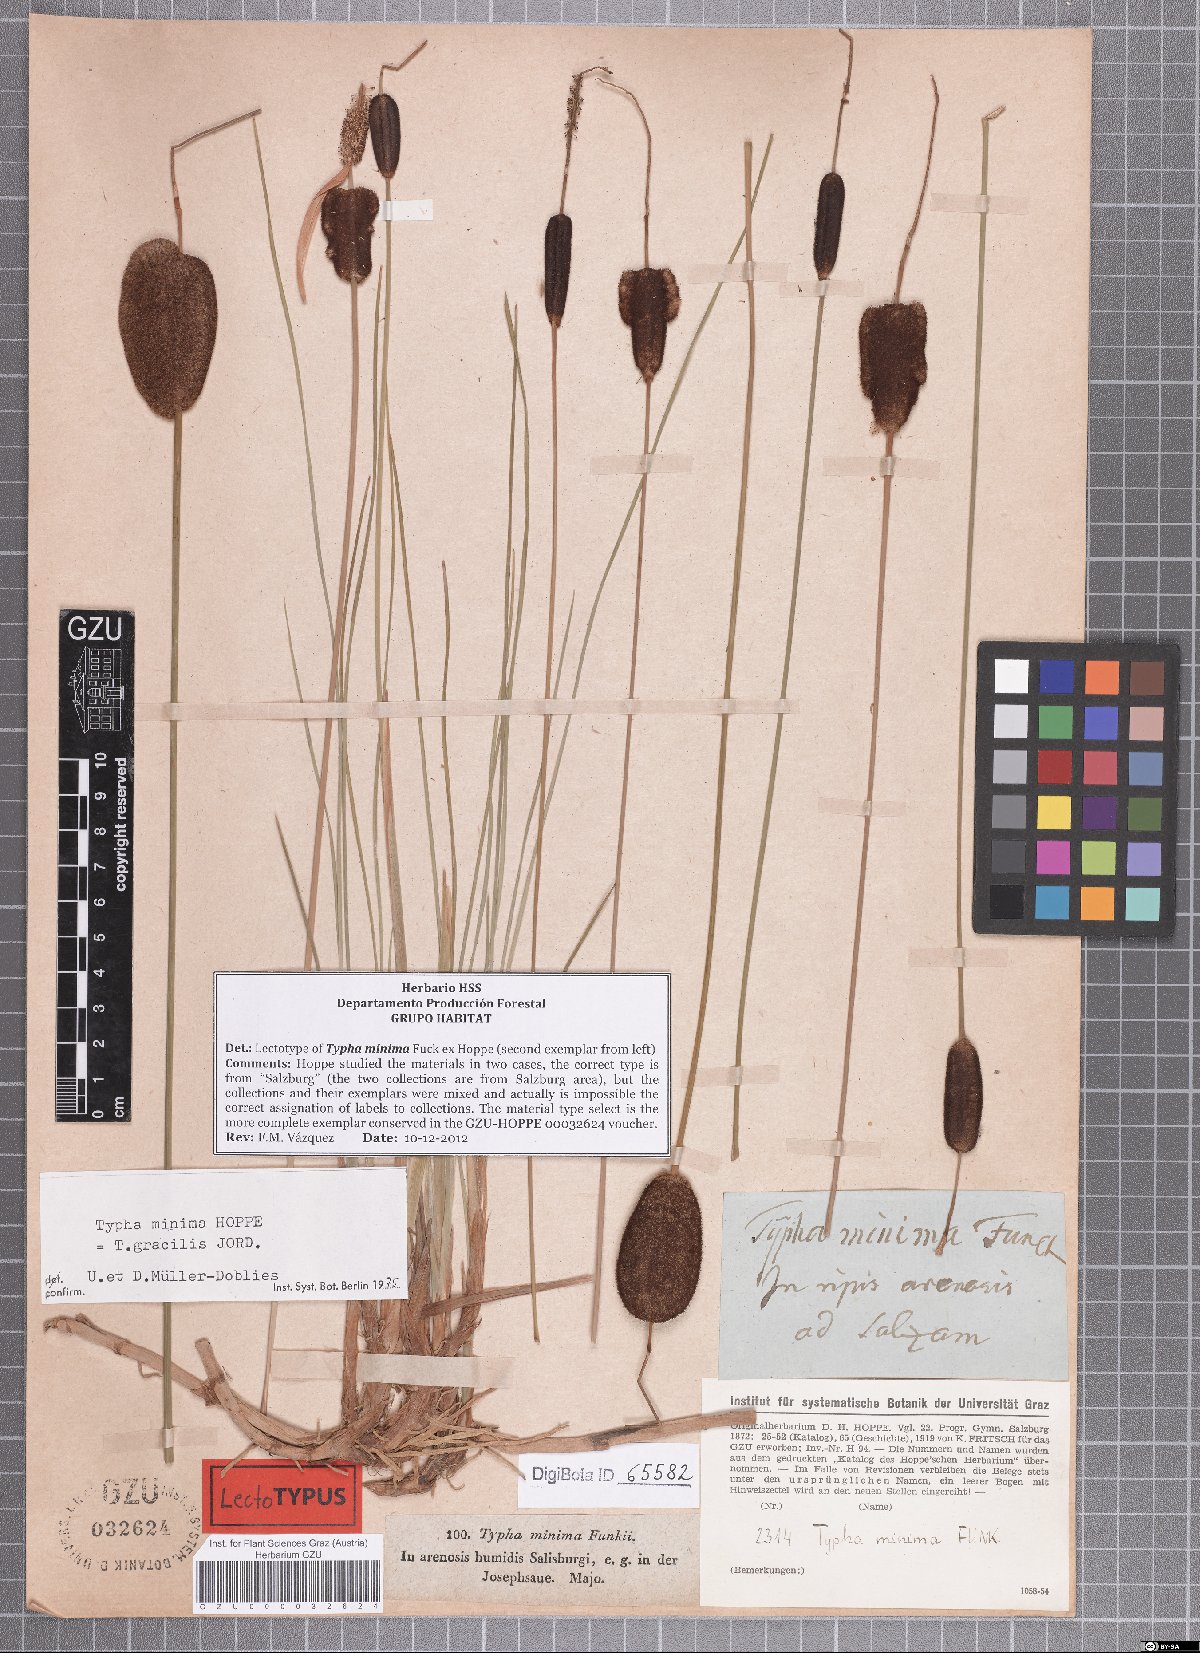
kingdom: Plantae
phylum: Tracheophyta
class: Liliopsida
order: Poales
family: Typhaceae
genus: Typha
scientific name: Typha minima
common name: Dwarf bulrush
